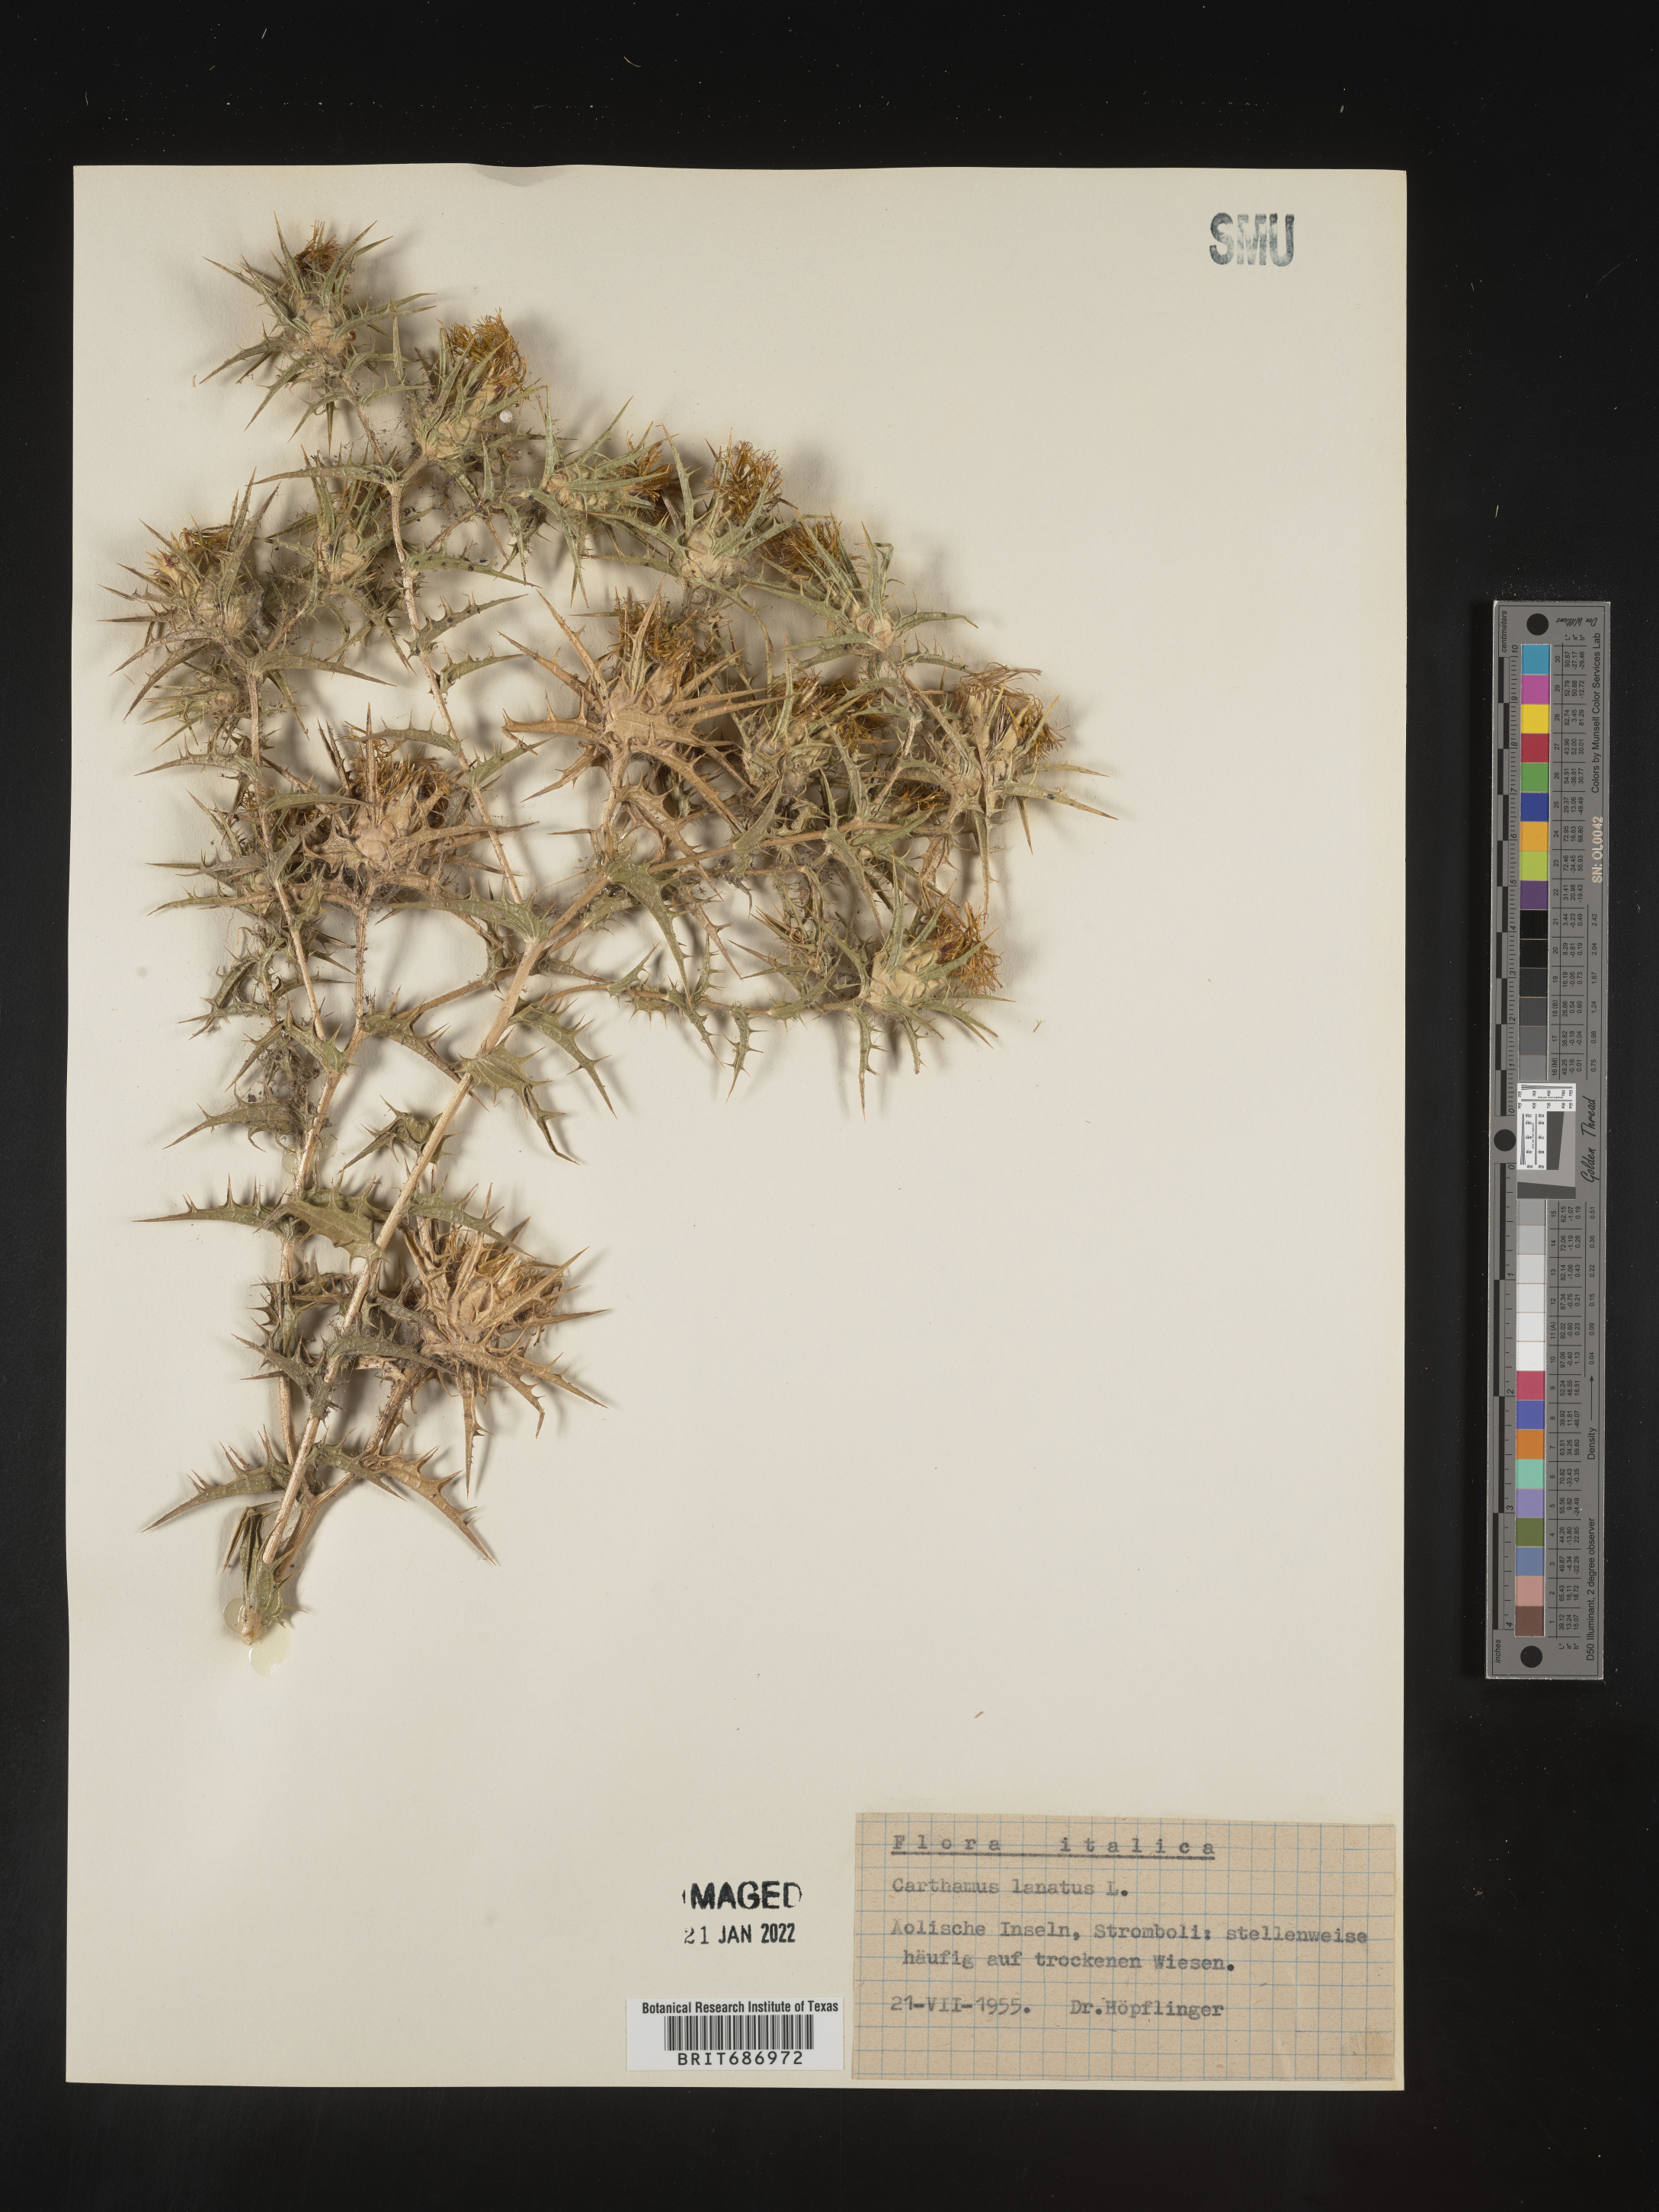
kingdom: Plantae
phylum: Tracheophyta
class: Magnoliopsida
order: Asterales
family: Asteraceae
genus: Carthamus
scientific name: Carthamus
